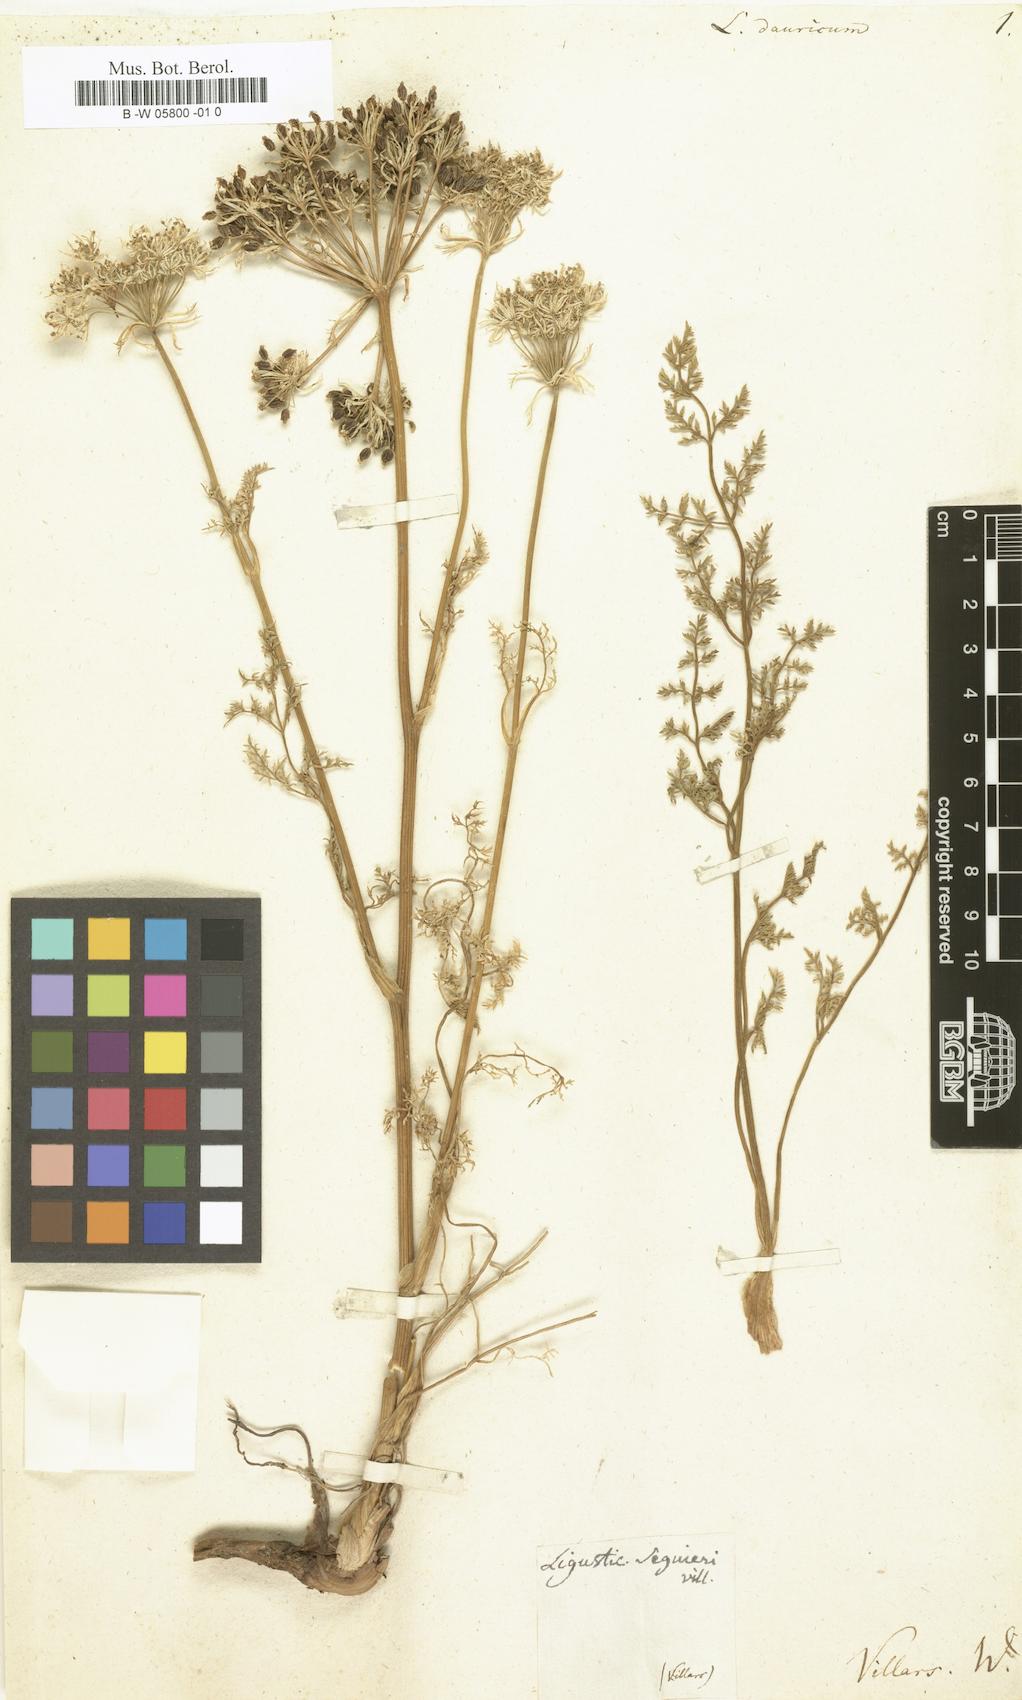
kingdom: Plantae
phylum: Tracheophyta
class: Magnoliopsida
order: Apiales
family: Apiaceae
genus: Cnidium
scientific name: Cnidium dauricum
